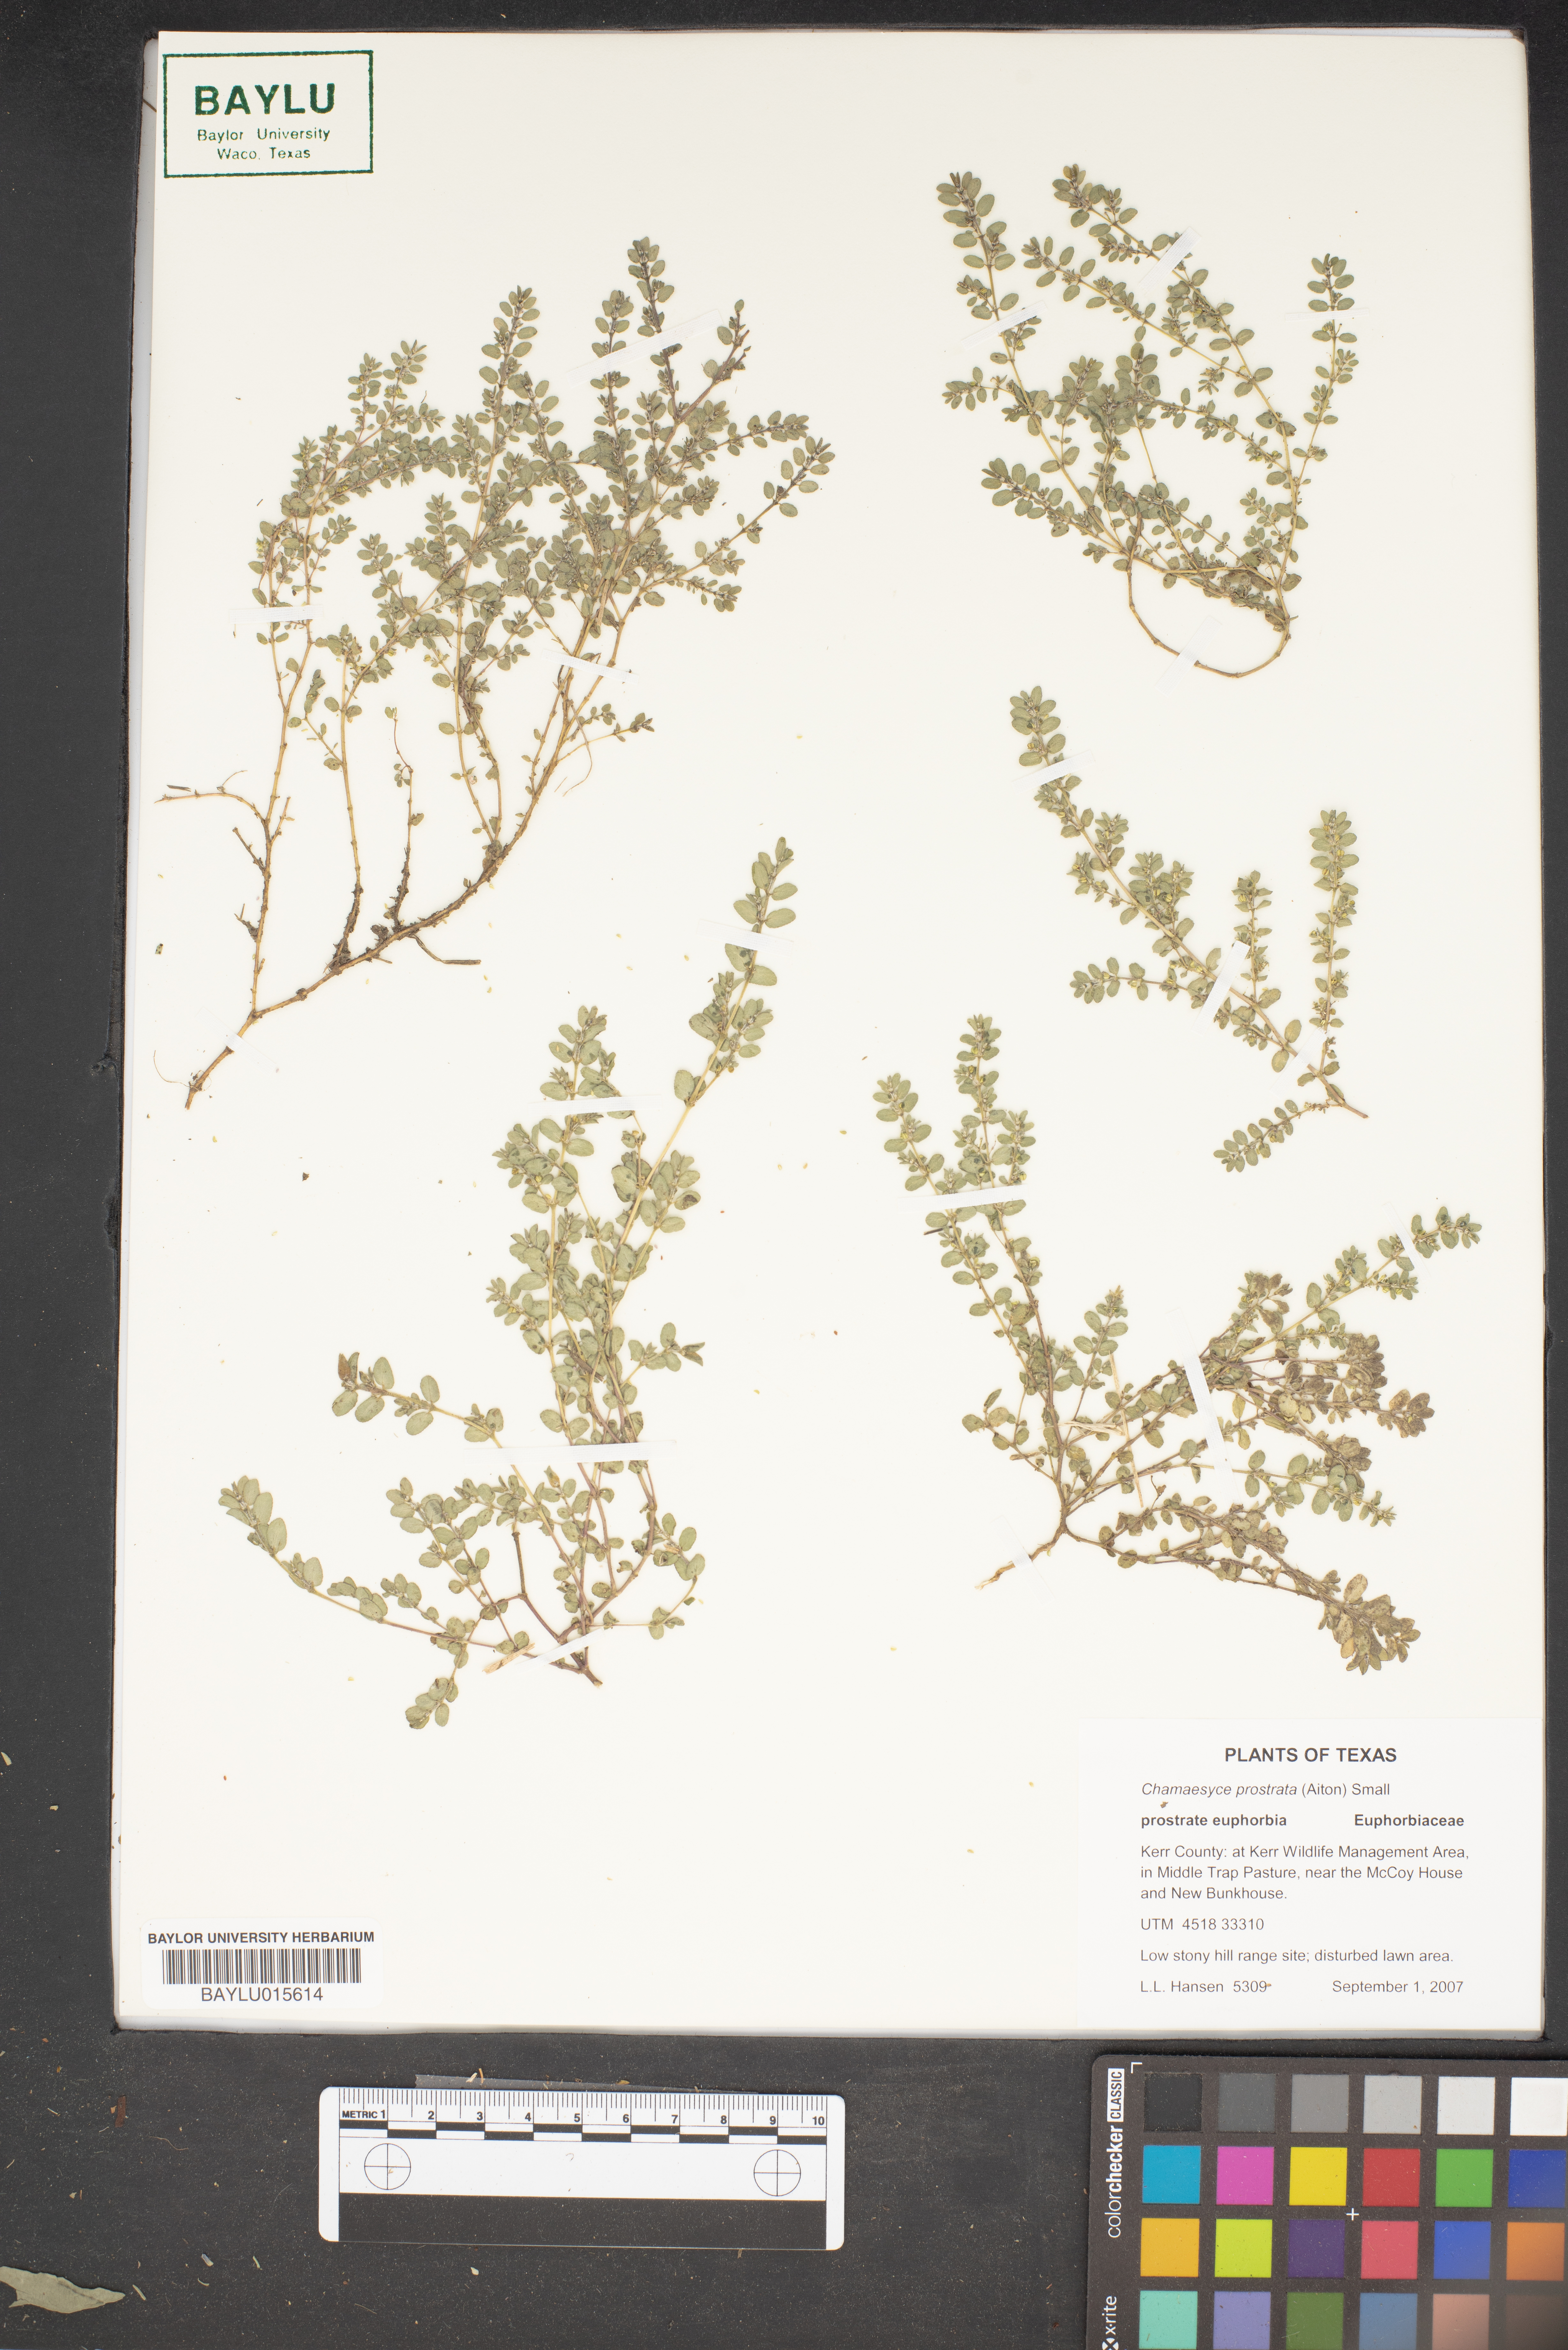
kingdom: Plantae
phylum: Tracheophyta
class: Magnoliopsida
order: Malpighiales
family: Euphorbiaceae
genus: Euphorbia
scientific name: Euphorbia prostrata
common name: Prostrate sandmat
